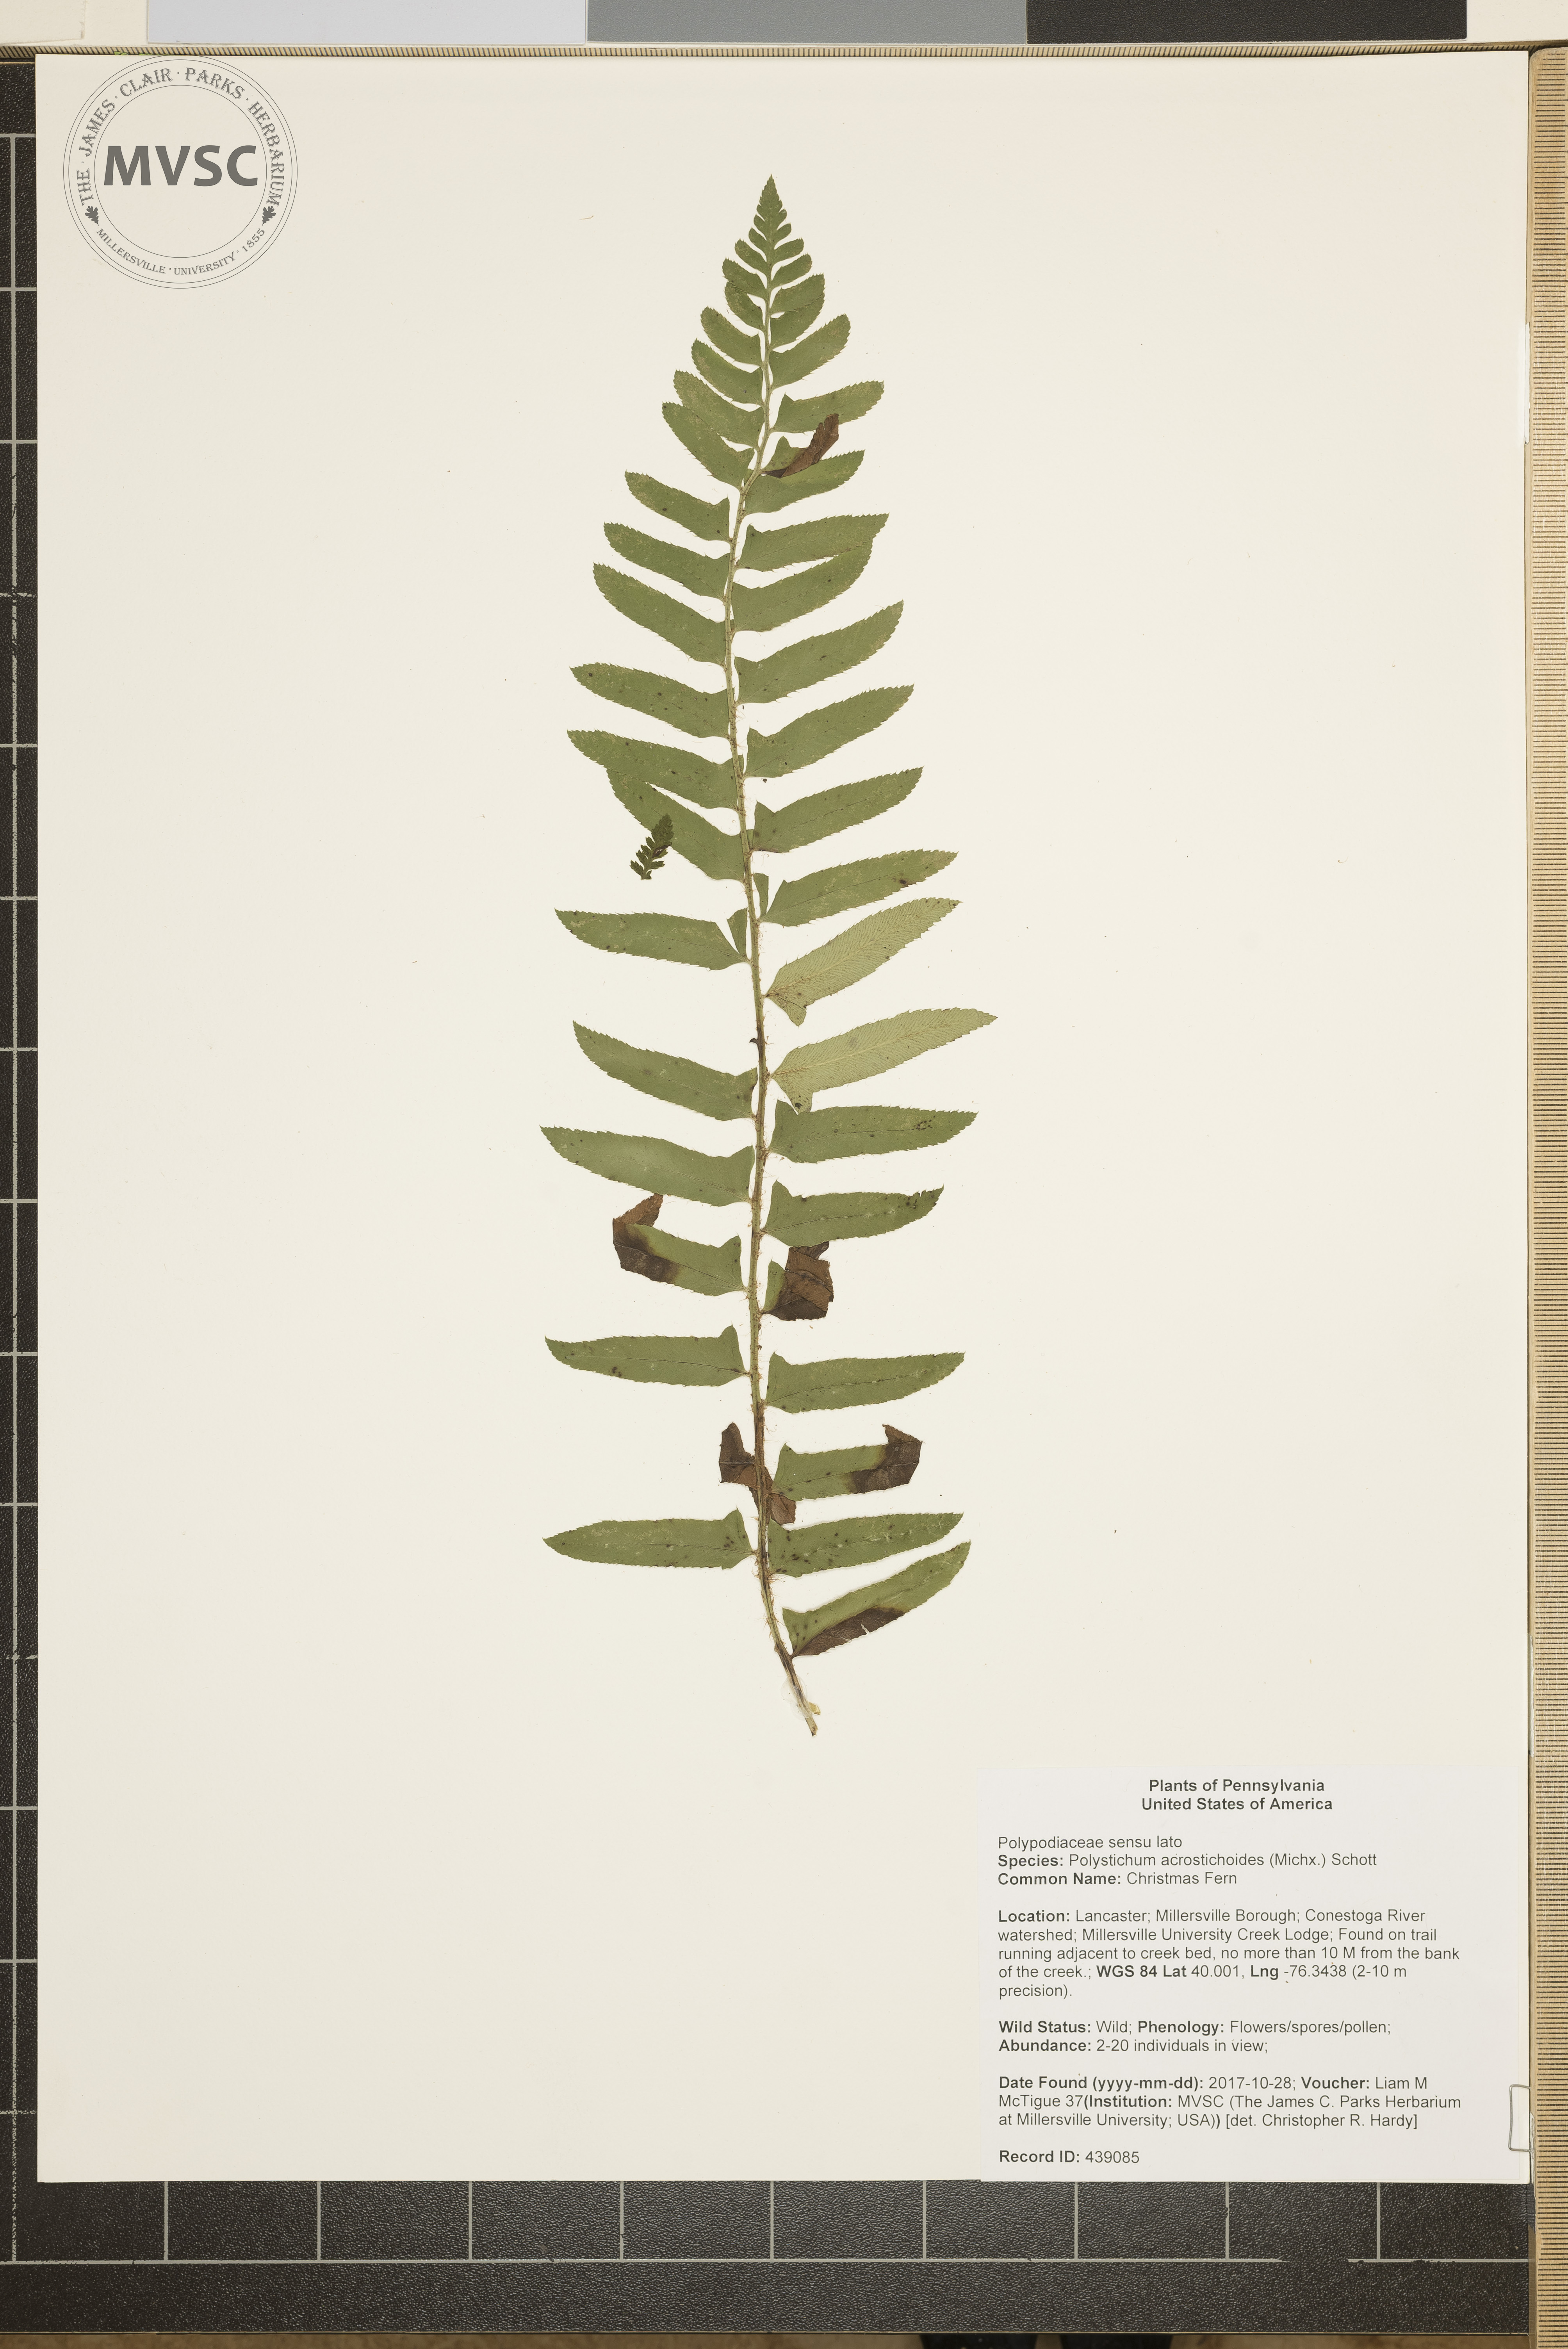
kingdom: Plantae
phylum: Tracheophyta
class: Polypodiopsida
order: Polypodiales
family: Dryopteridaceae
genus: Polystichum
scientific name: Polystichum acrostichoides
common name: Christmas Fern
